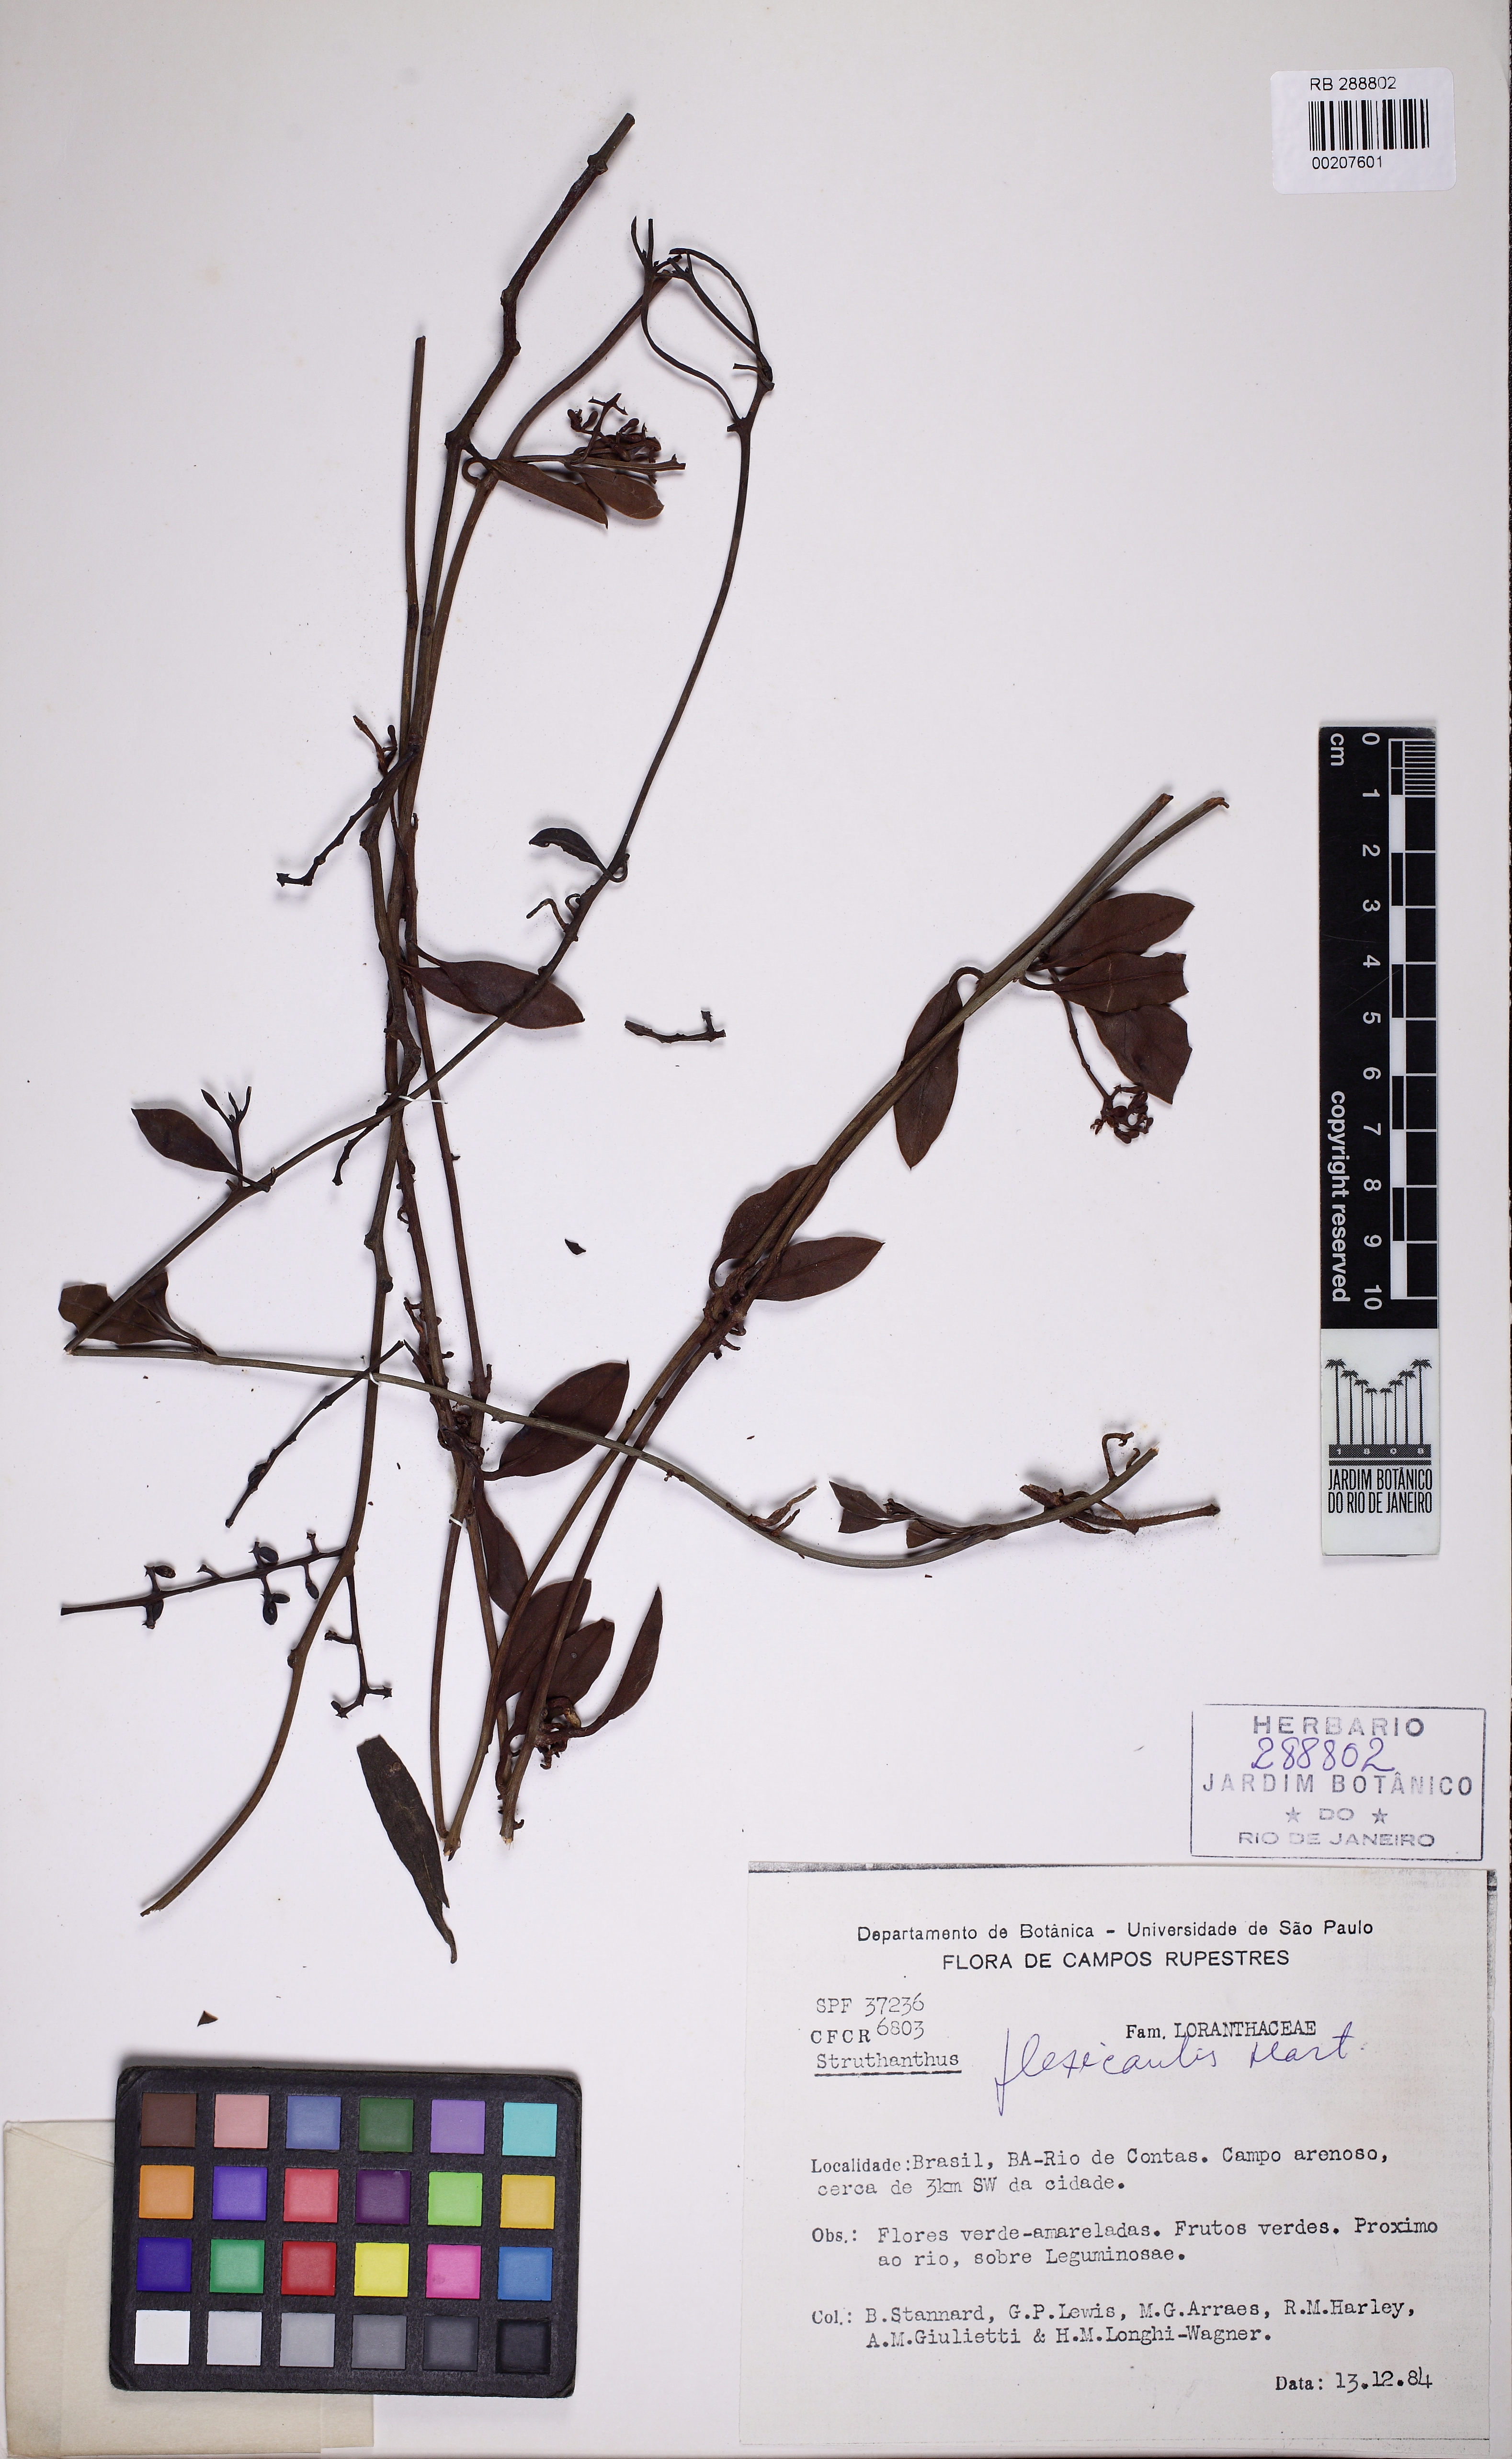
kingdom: Plantae
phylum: Tracheophyta
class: Magnoliopsida
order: Santalales
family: Loranthaceae
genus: Struthanthus
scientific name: Struthanthus flexicaulis
